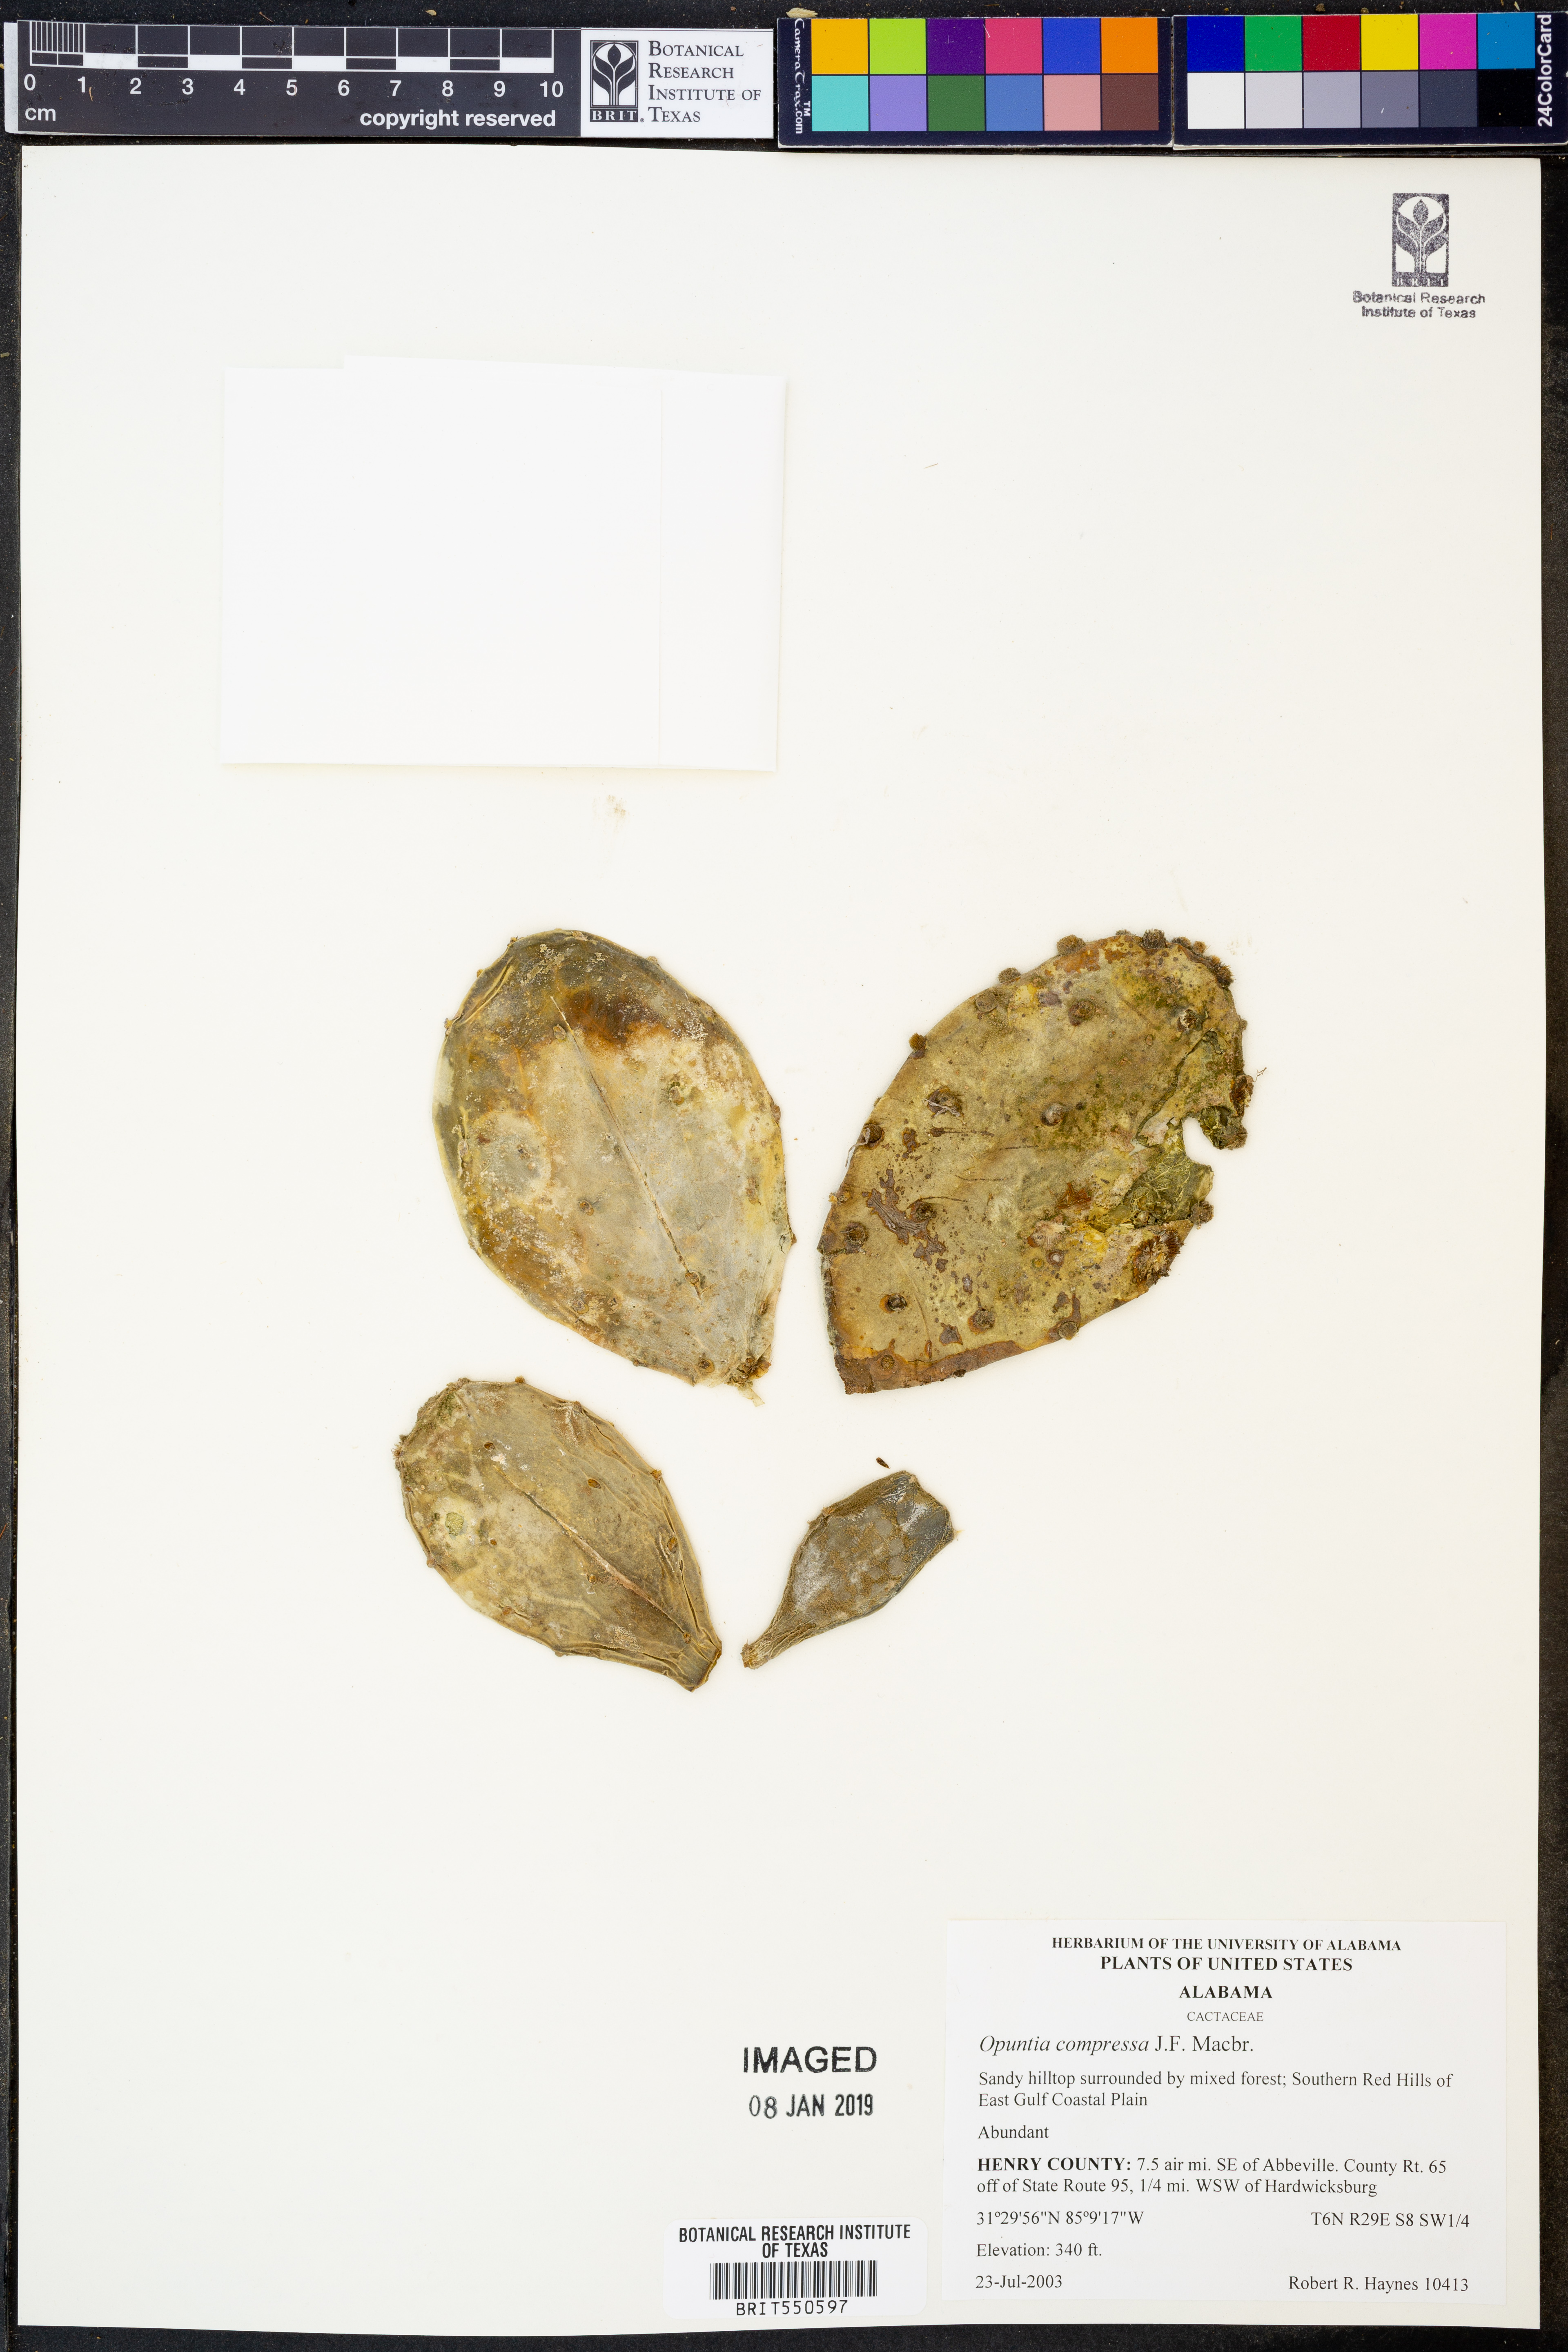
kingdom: Plantae
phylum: Tracheophyta
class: Magnoliopsida
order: Caryophyllales
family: Cactaceae
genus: Opuntia
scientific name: Opuntia humifusa
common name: Eastern prickly-pear
